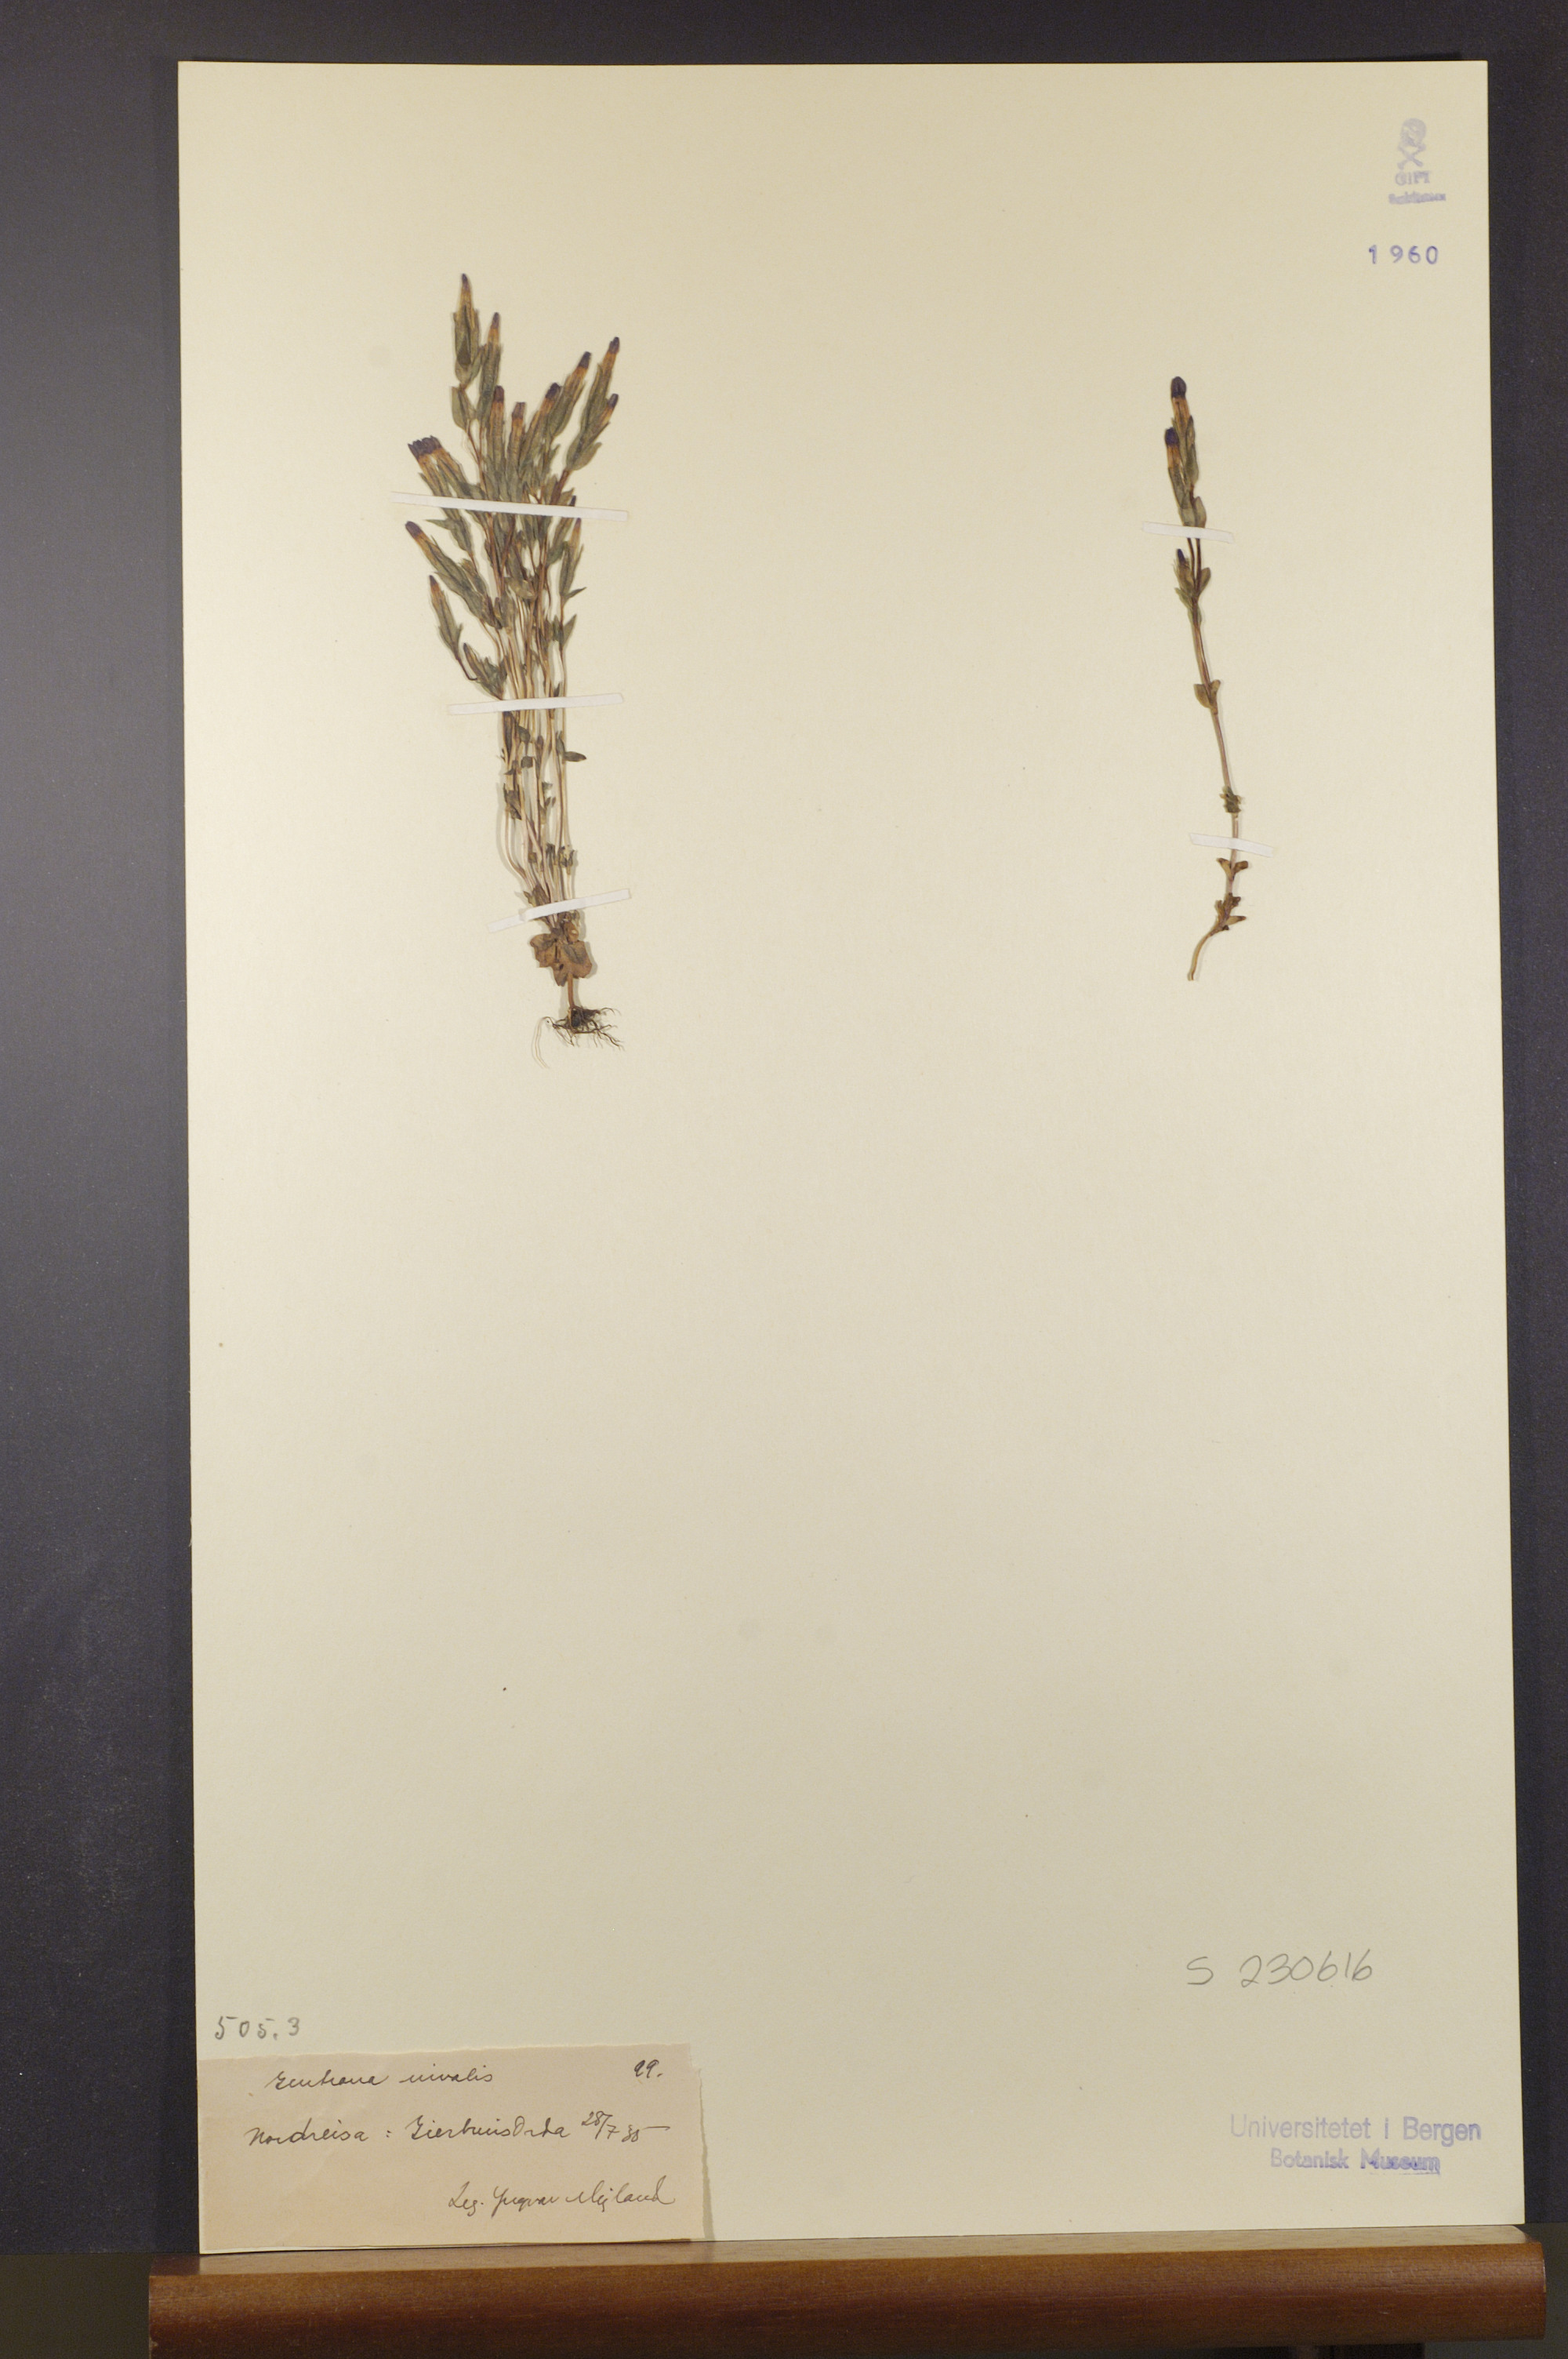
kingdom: Plantae
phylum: Tracheophyta
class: Magnoliopsida
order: Gentianales
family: Gentianaceae
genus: Gentiana
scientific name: Gentiana nivalis
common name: Alpine gentian
